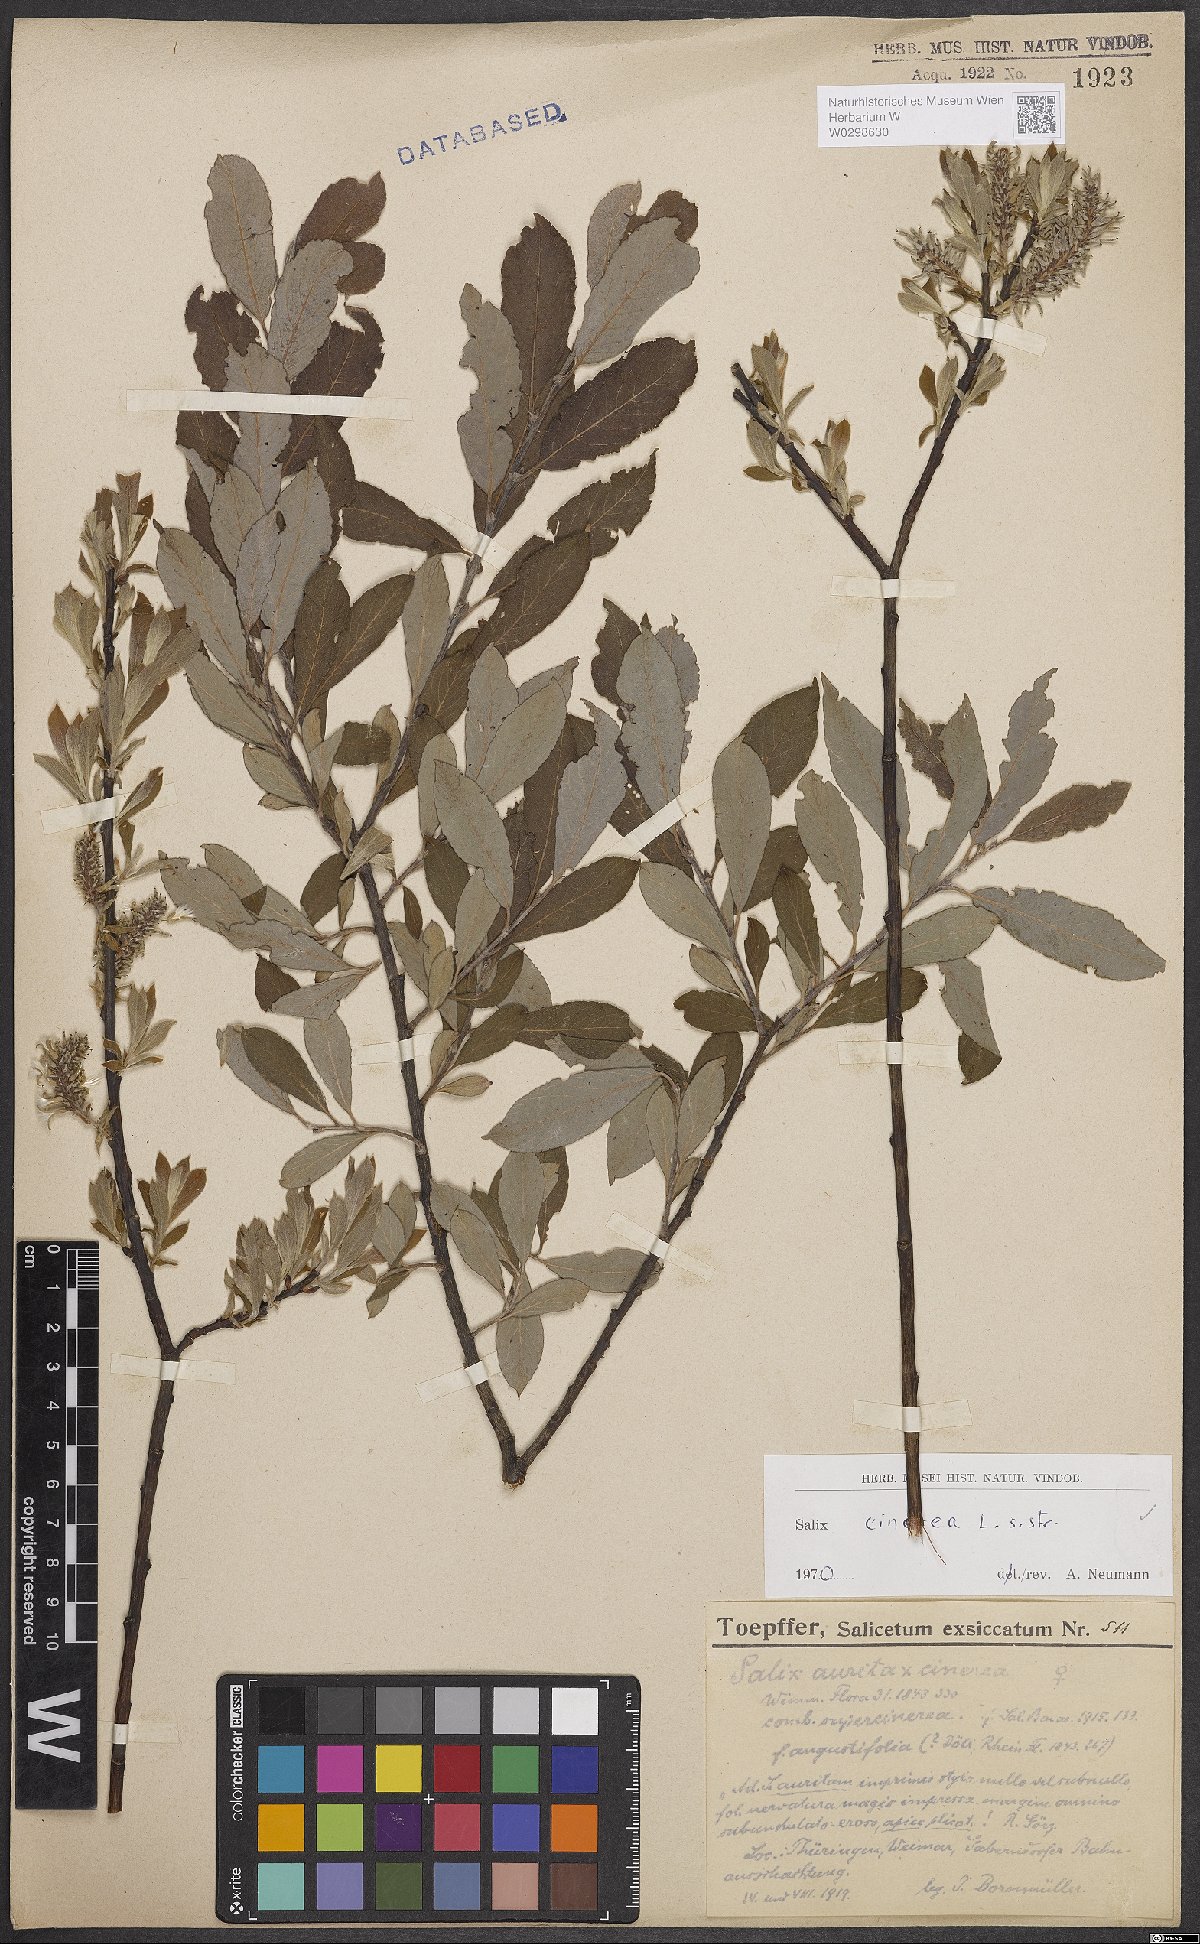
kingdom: Plantae
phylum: Tracheophyta
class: Magnoliopsida
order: Malpighiales
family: Salicaceae
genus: Salix
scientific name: Salix cinerea
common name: Common sallow
